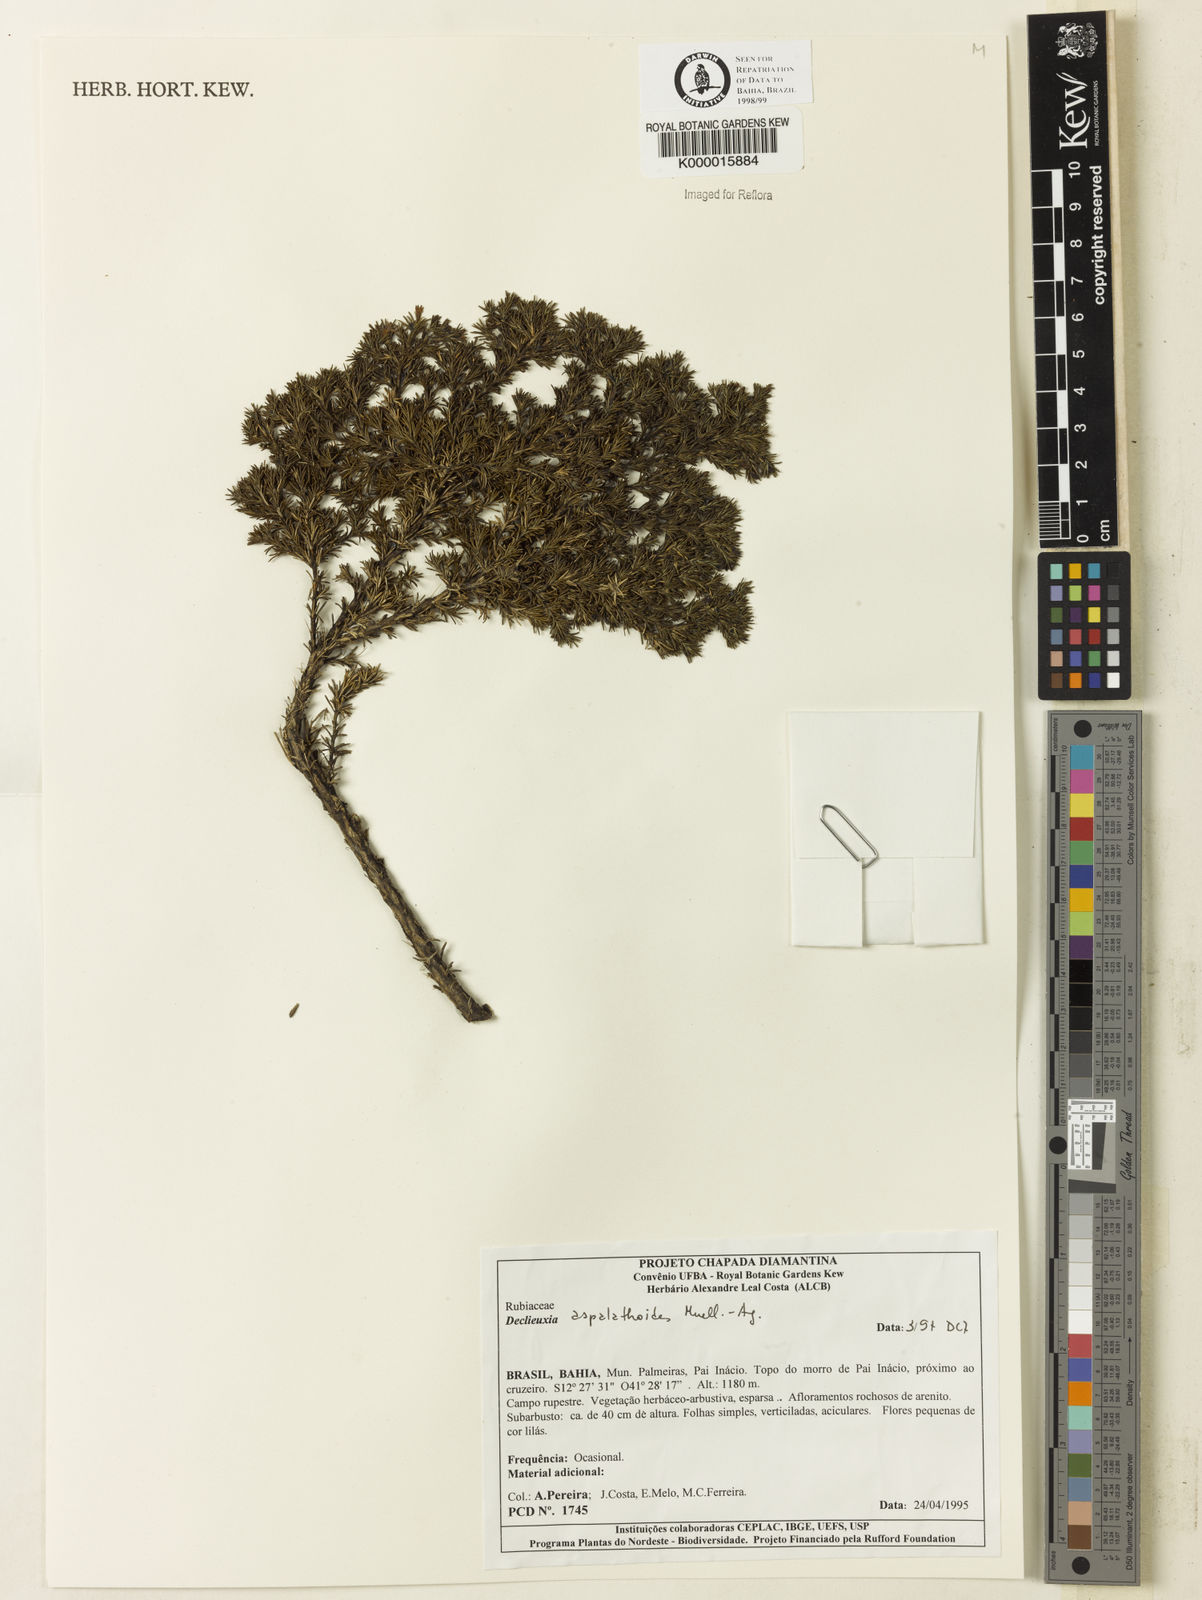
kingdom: Plantae
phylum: Tracheophyta
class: Magnoliopsida
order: Gentianales
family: Rubiaceae
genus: Declieuxia
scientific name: Declieuxia aspalathoides
